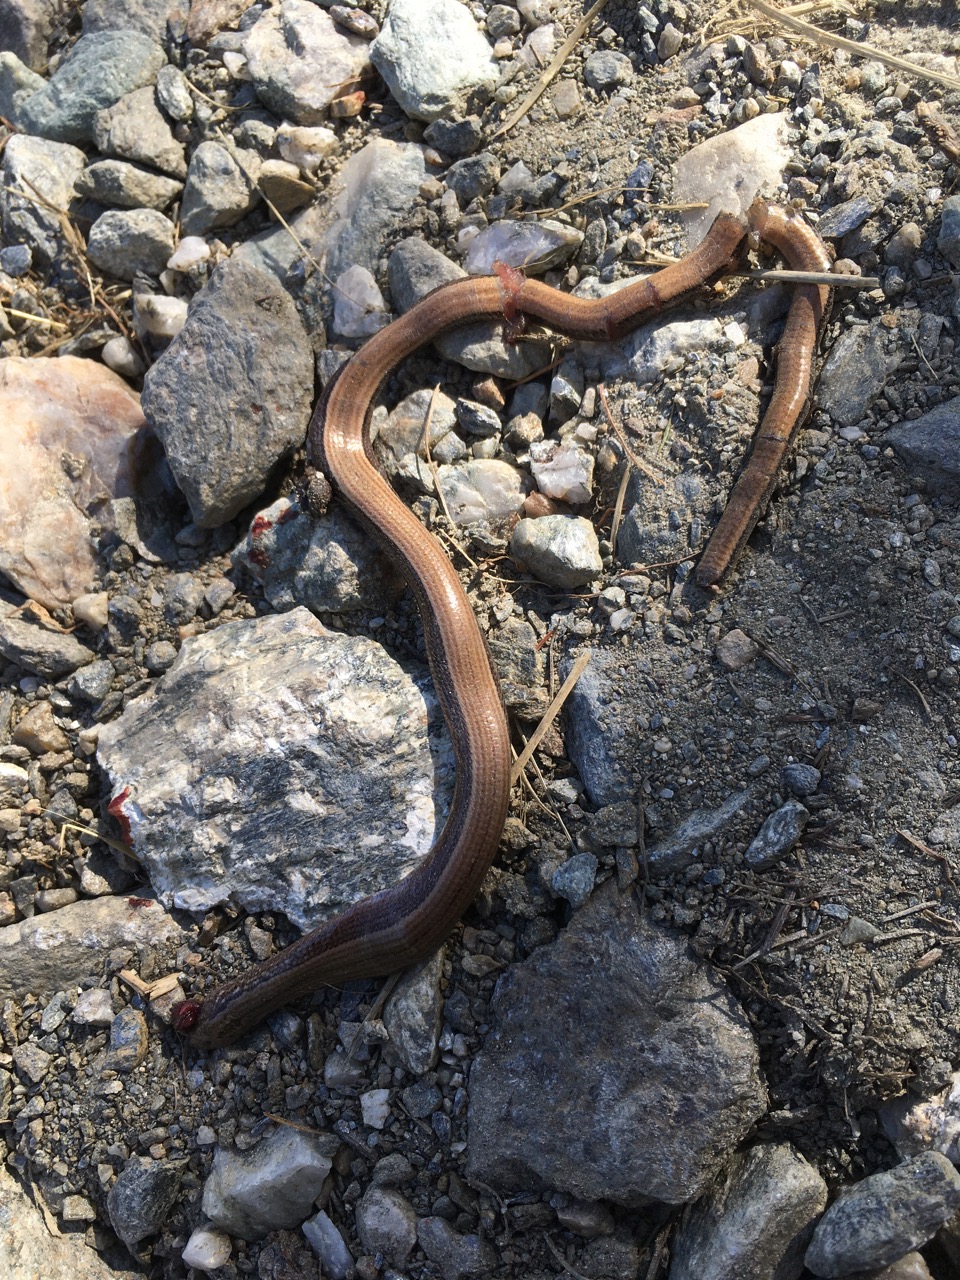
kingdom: Animalia
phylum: Chordata
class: Squamata
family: Anguidae
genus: Anguis
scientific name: Anguis fragilis
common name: Slow worm
